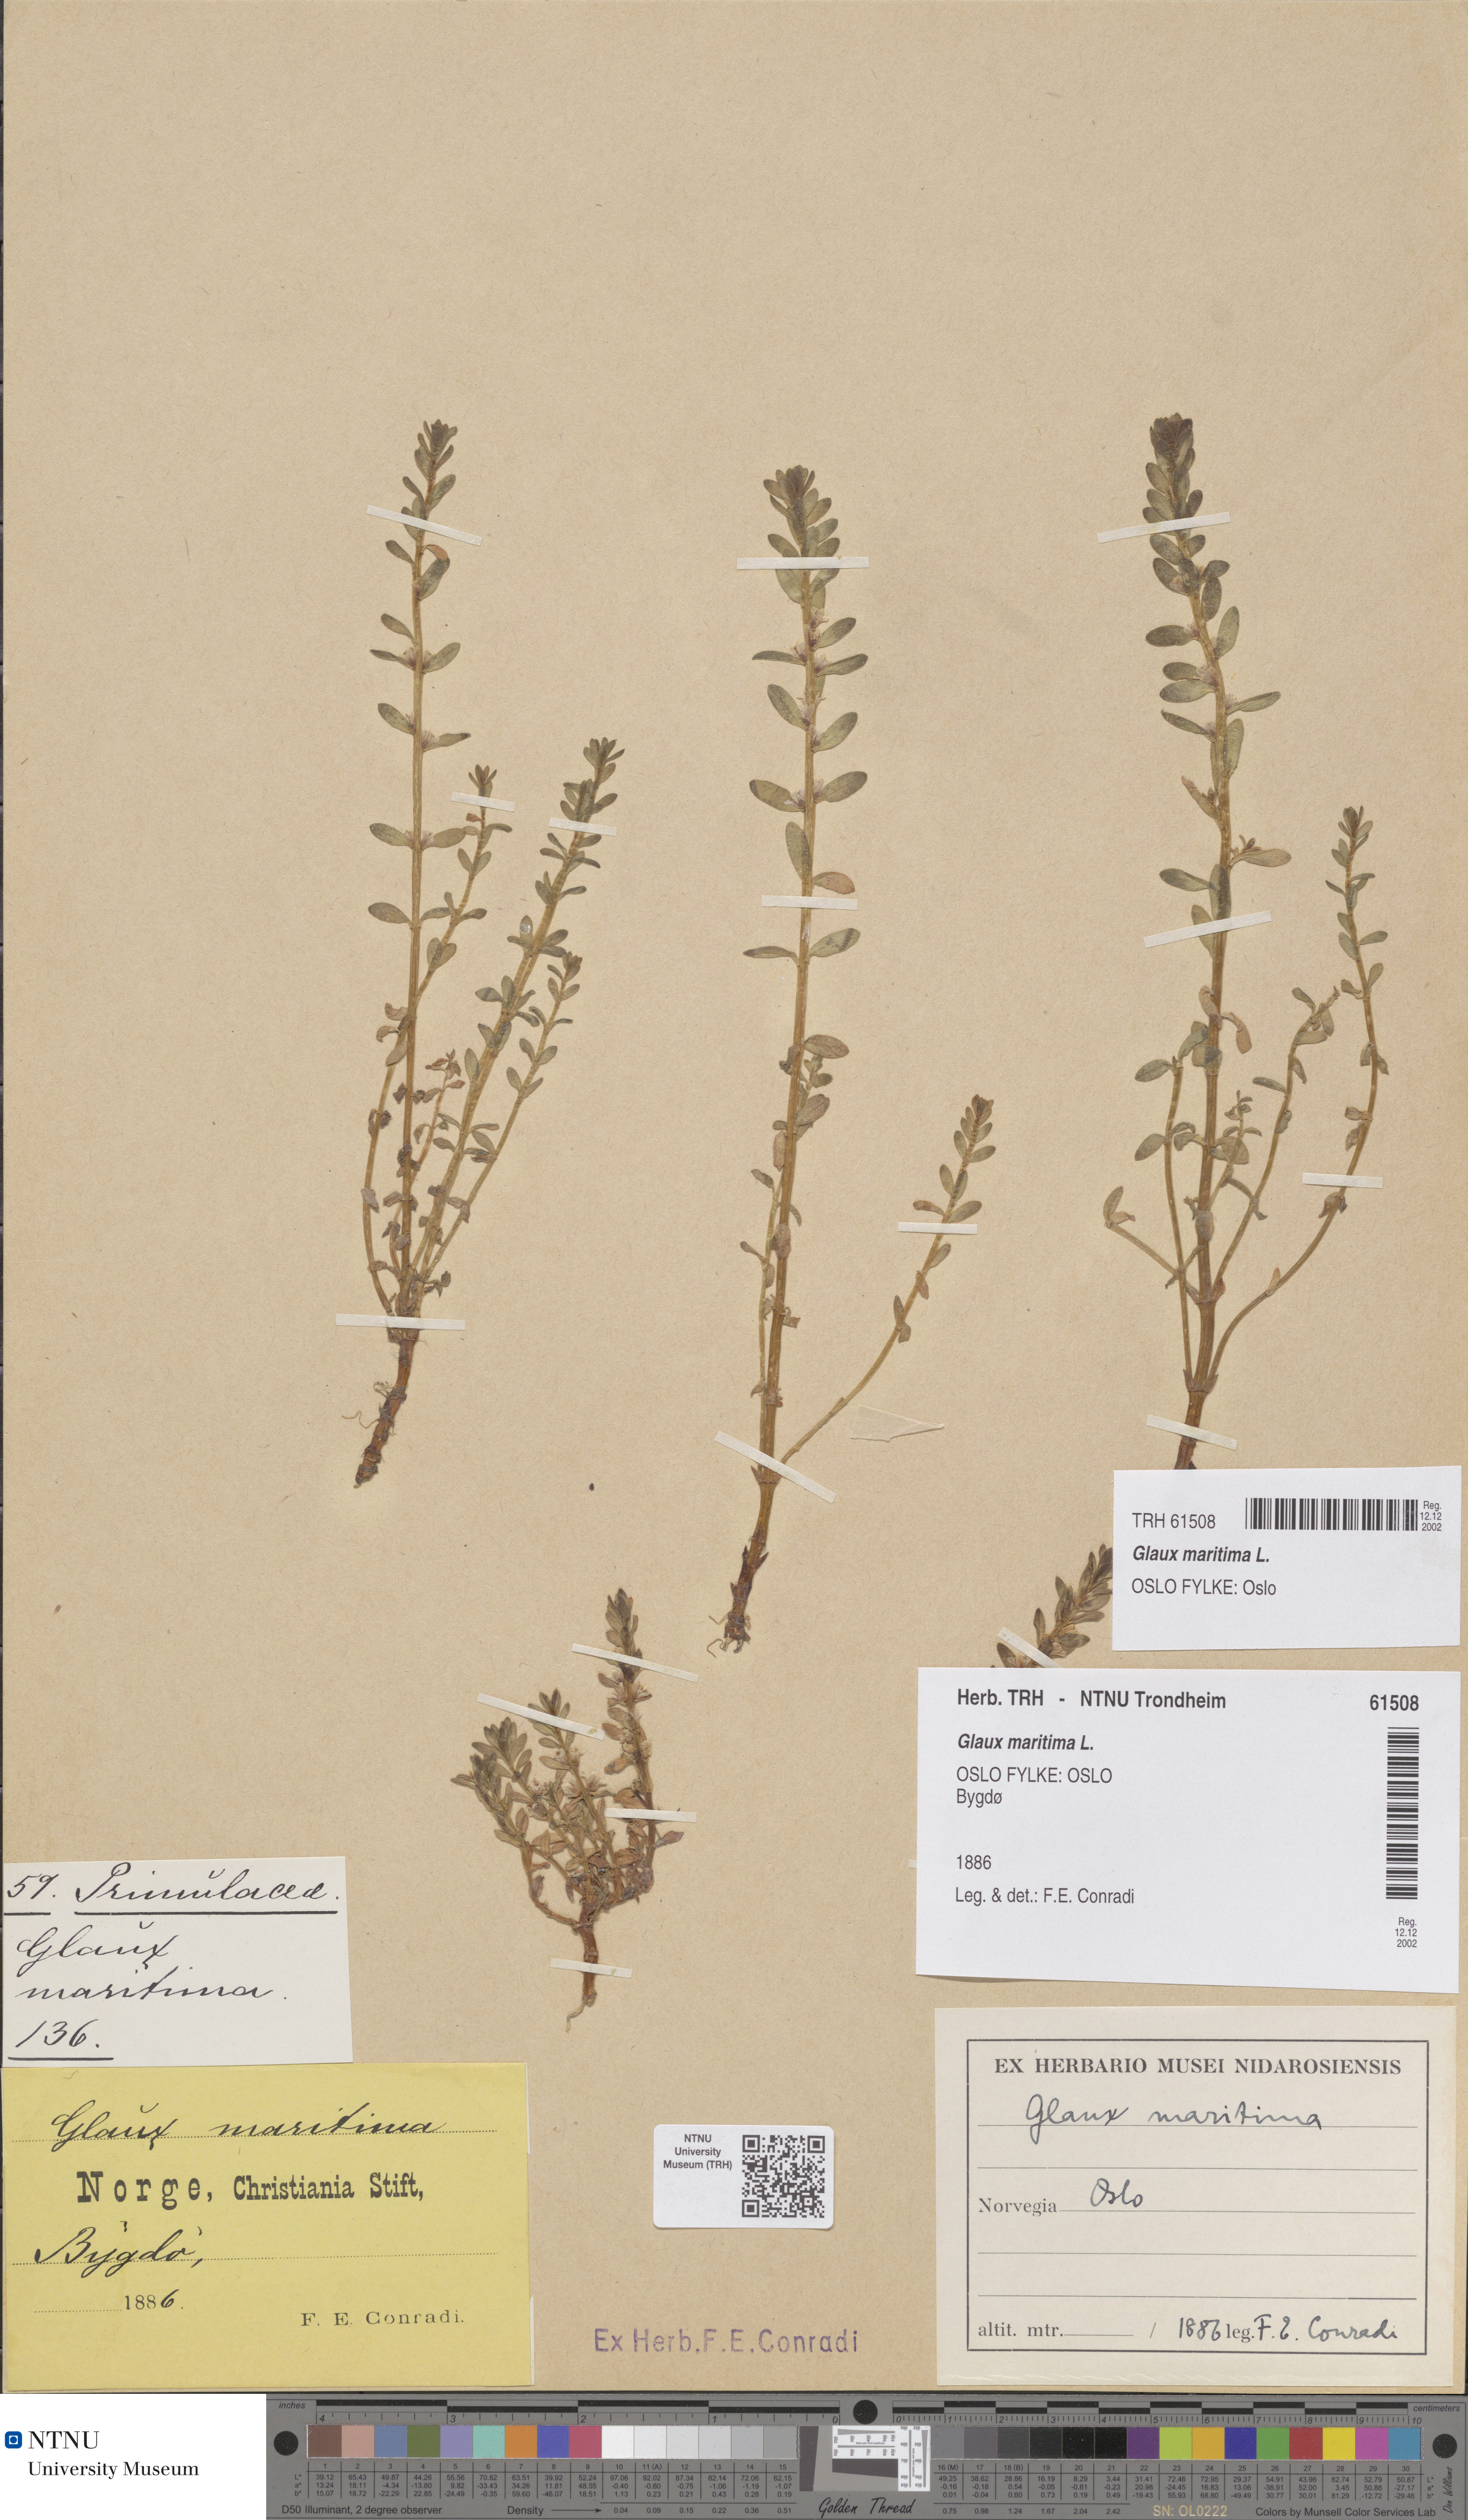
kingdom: Plantae
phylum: Tracheophyta
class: Magnoliopsida
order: Ericales
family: Primulaceae
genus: Lysimachia
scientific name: Lysimachia maritima
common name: Sea milkwort
